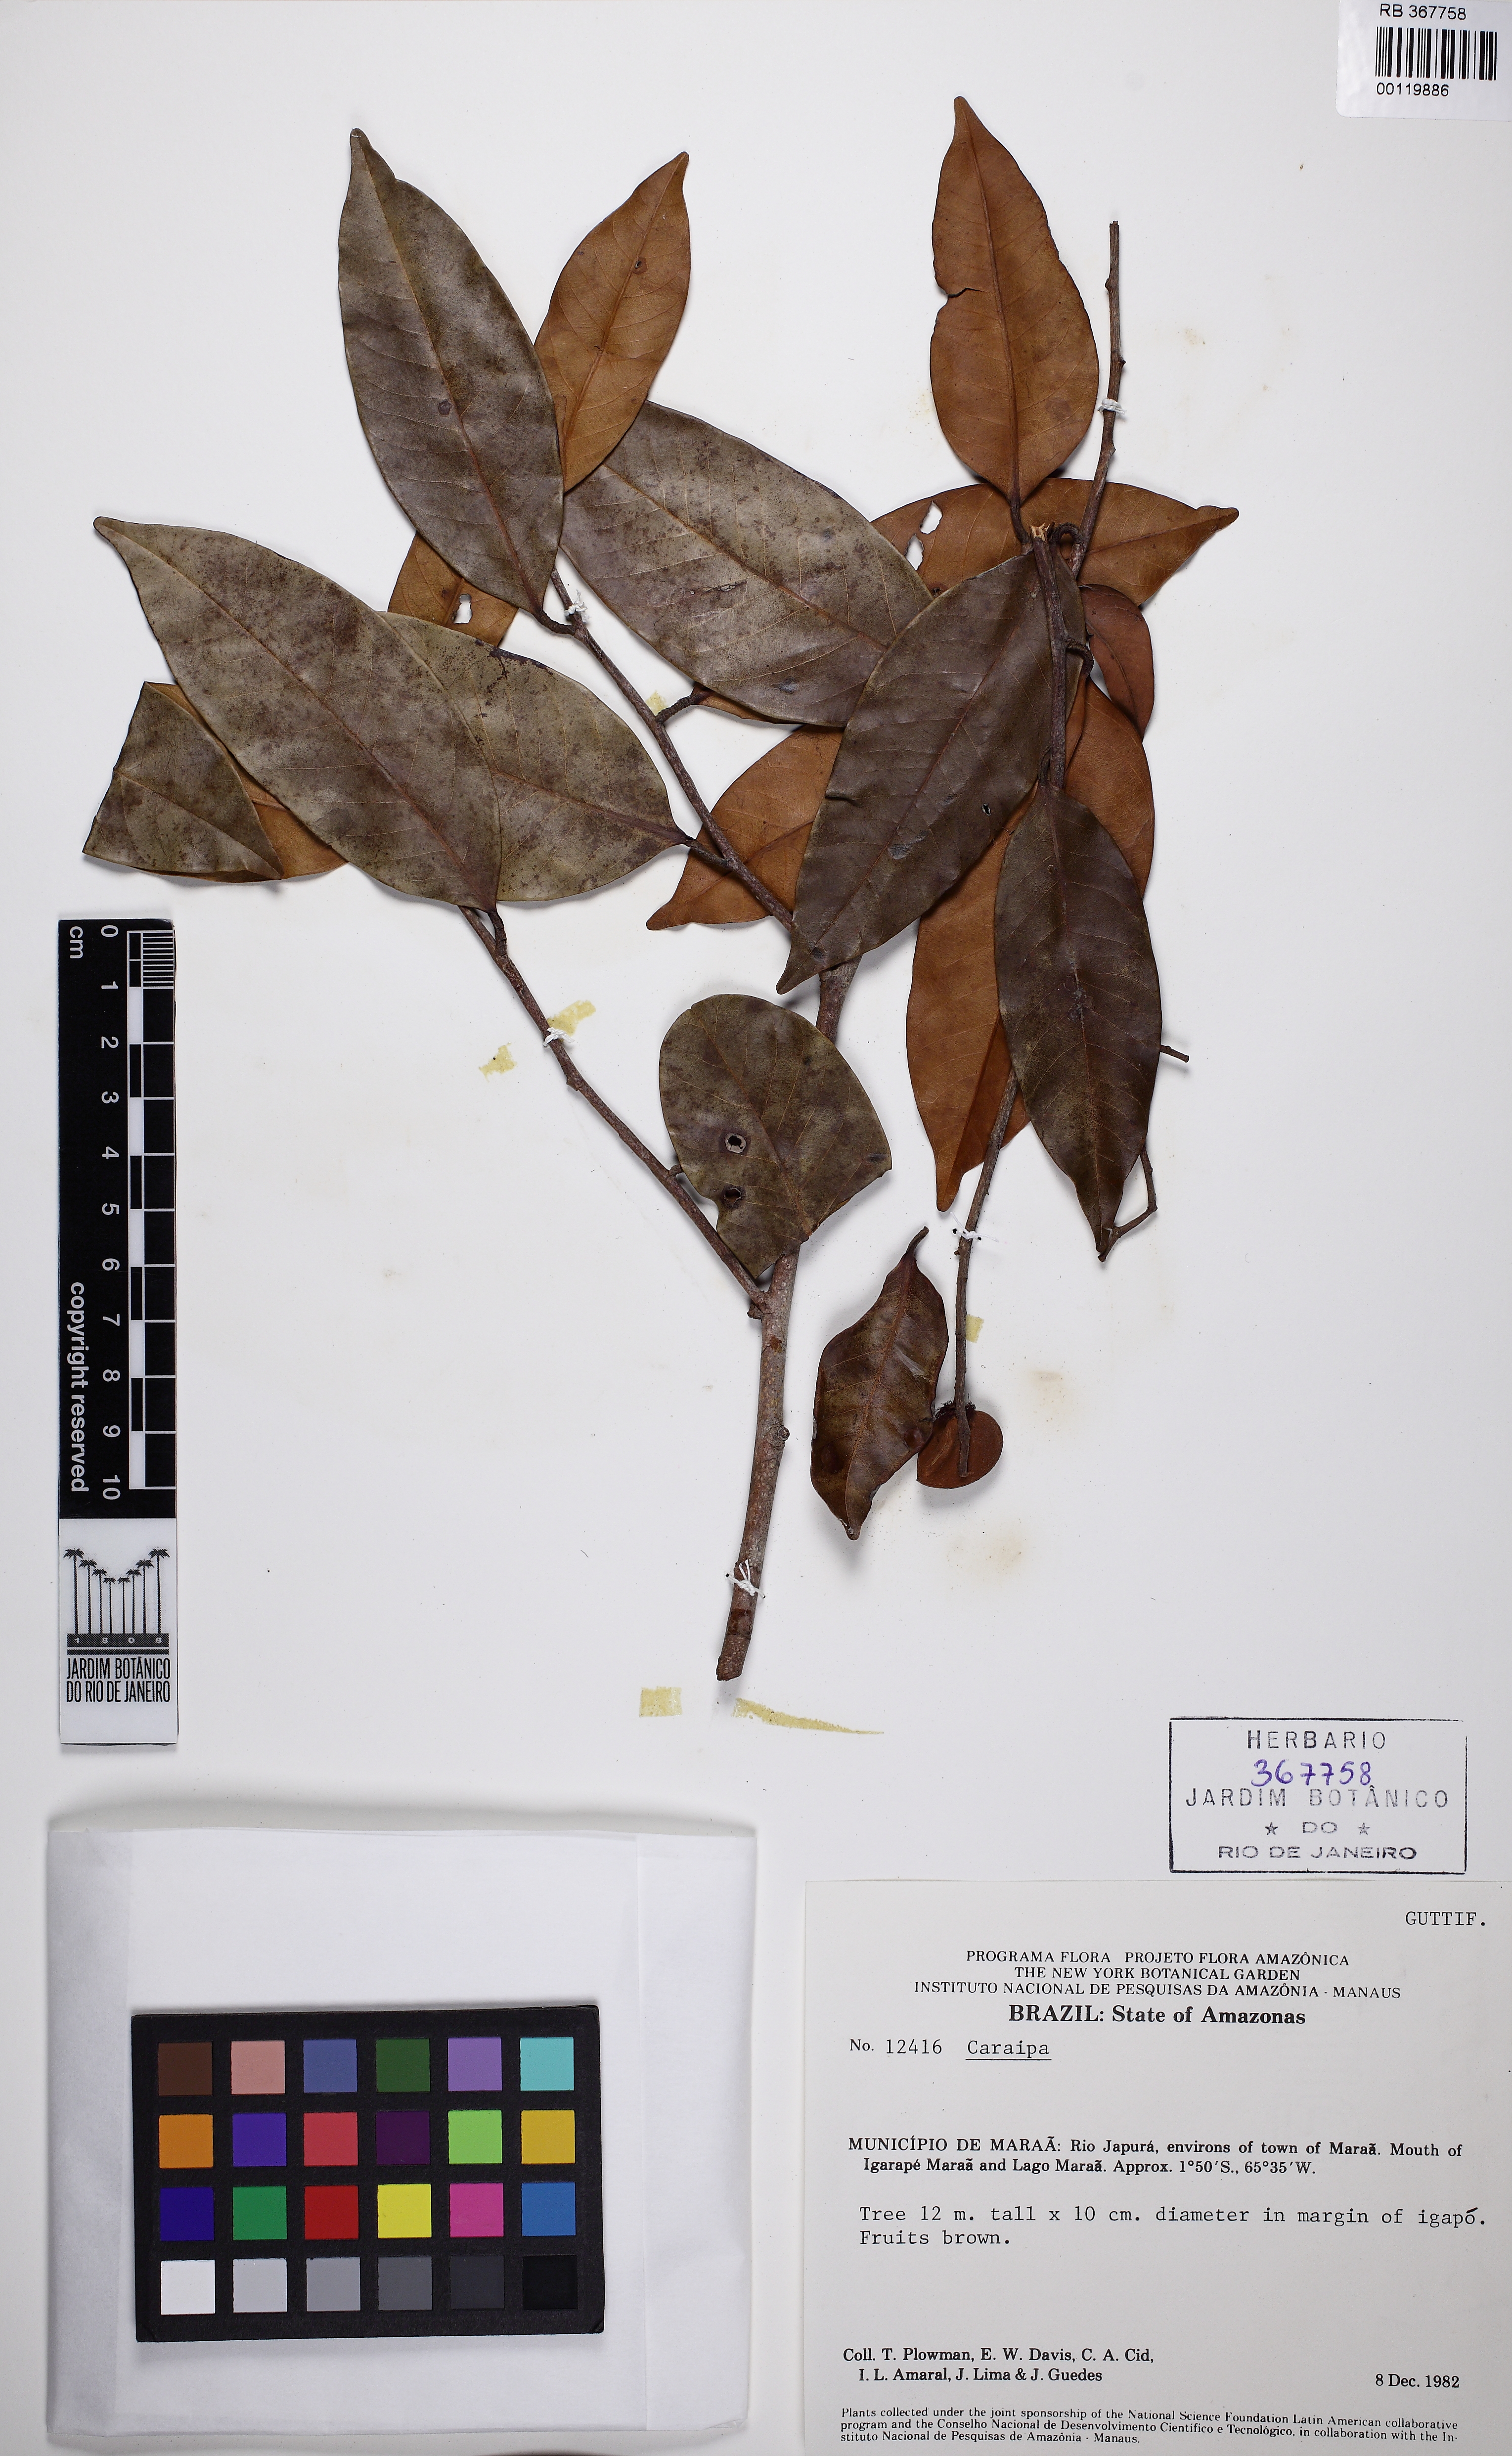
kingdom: Plantae
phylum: Tracheophyta
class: Magnoliopsida
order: Malpighiales
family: Calophyllaceae
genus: Caraipa
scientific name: Caraipa densifolia
